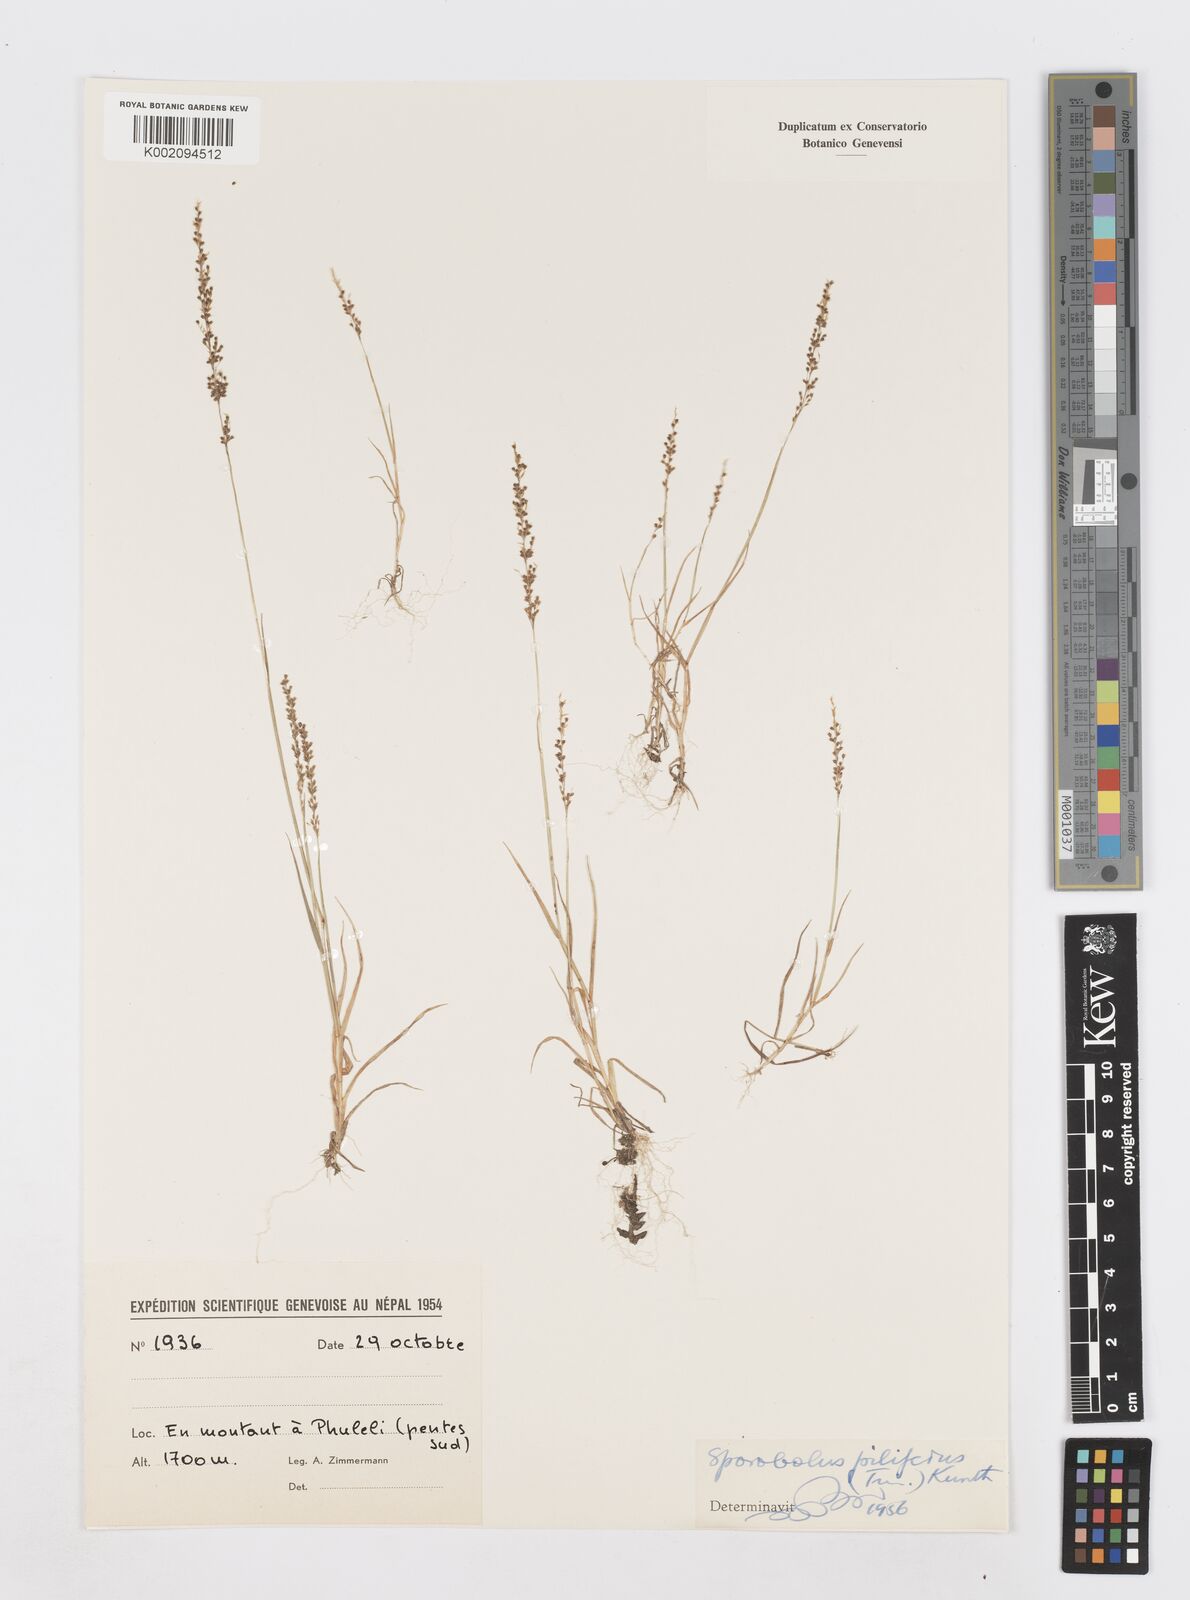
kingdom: Plantae
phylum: Tracheophyta
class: Liliopsida
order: Poales
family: Poaceae
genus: Sporobolus
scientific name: Sporobolus pilifer
